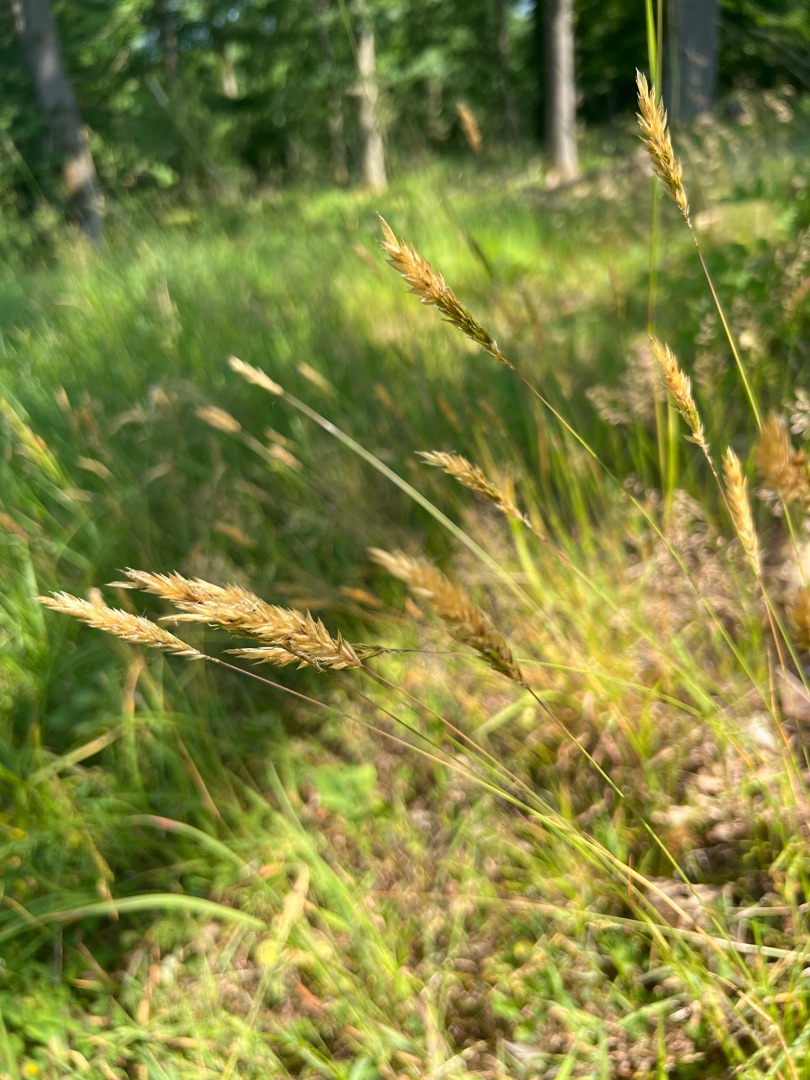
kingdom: Plantae
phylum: Tracheophyta
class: Liliopsida
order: Poales
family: Poaceae
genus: Anthoxanthum
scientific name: Anthoxanthum odoratum
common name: Vellugtende gulaks
